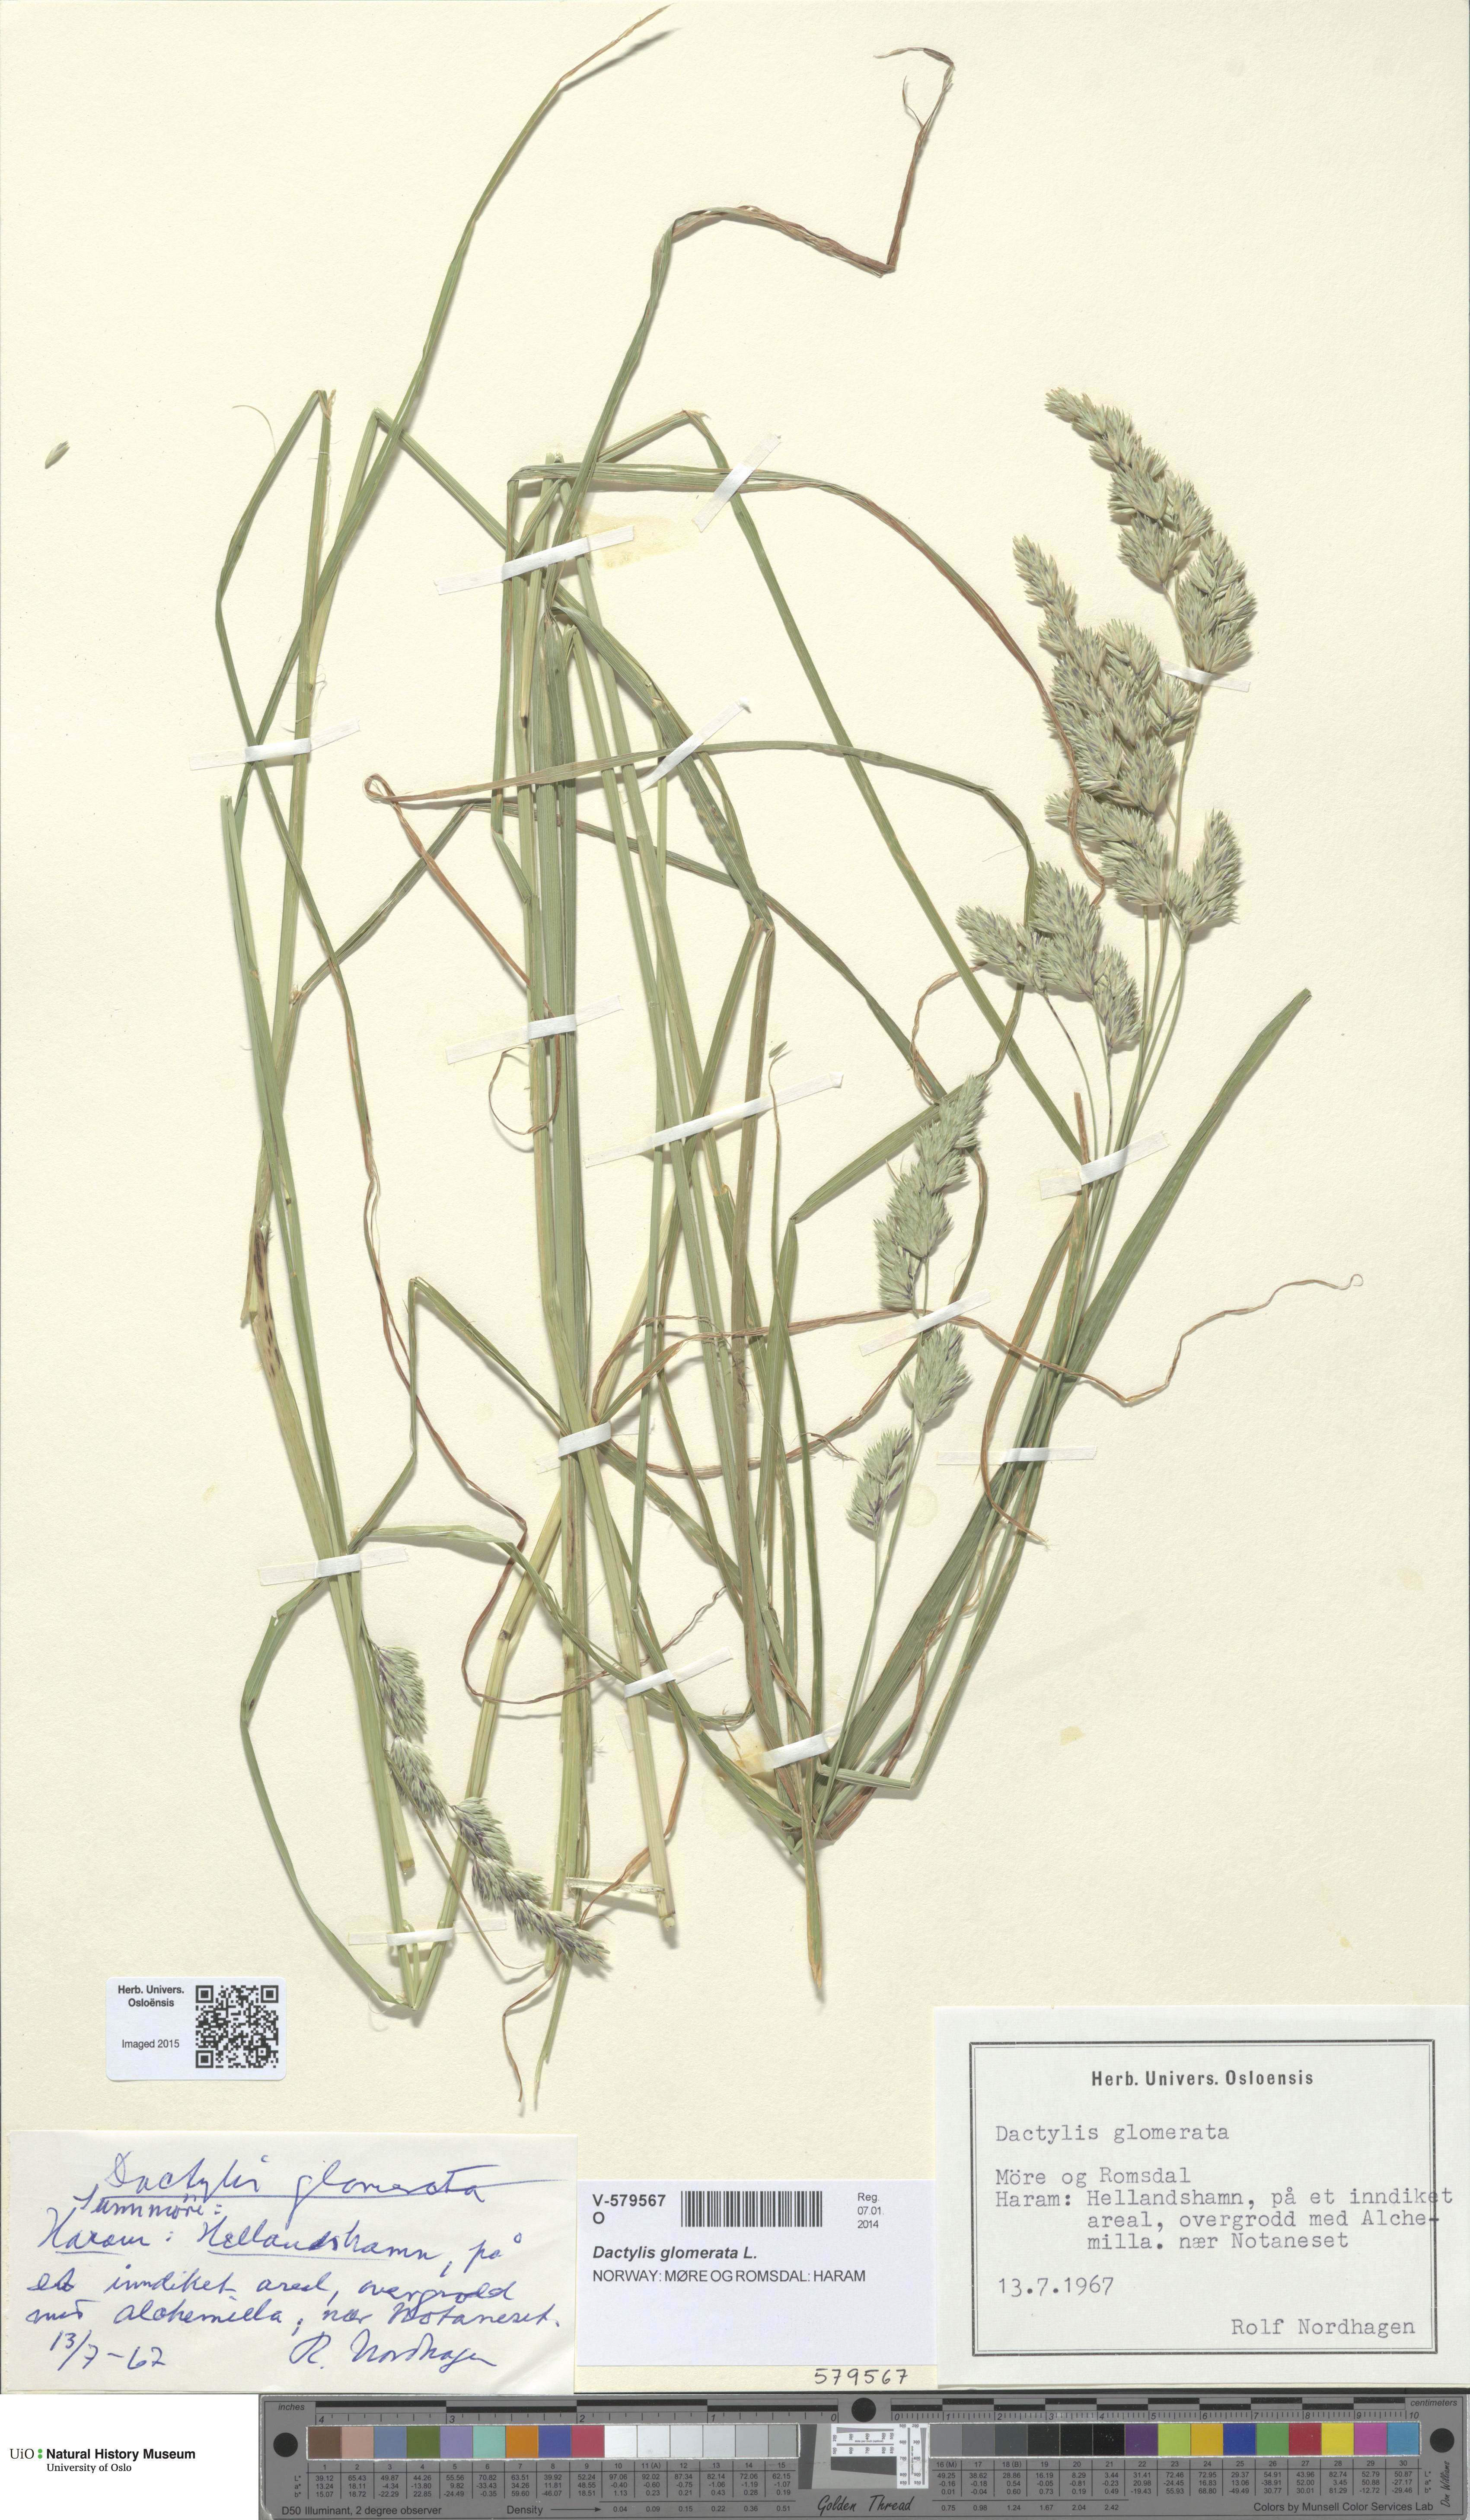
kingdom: Plantae
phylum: Tracheophyta
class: Liliopsida
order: Poales
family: Poaceae
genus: Dactylis
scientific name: Dactylis glomerata
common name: Orchardgrass
